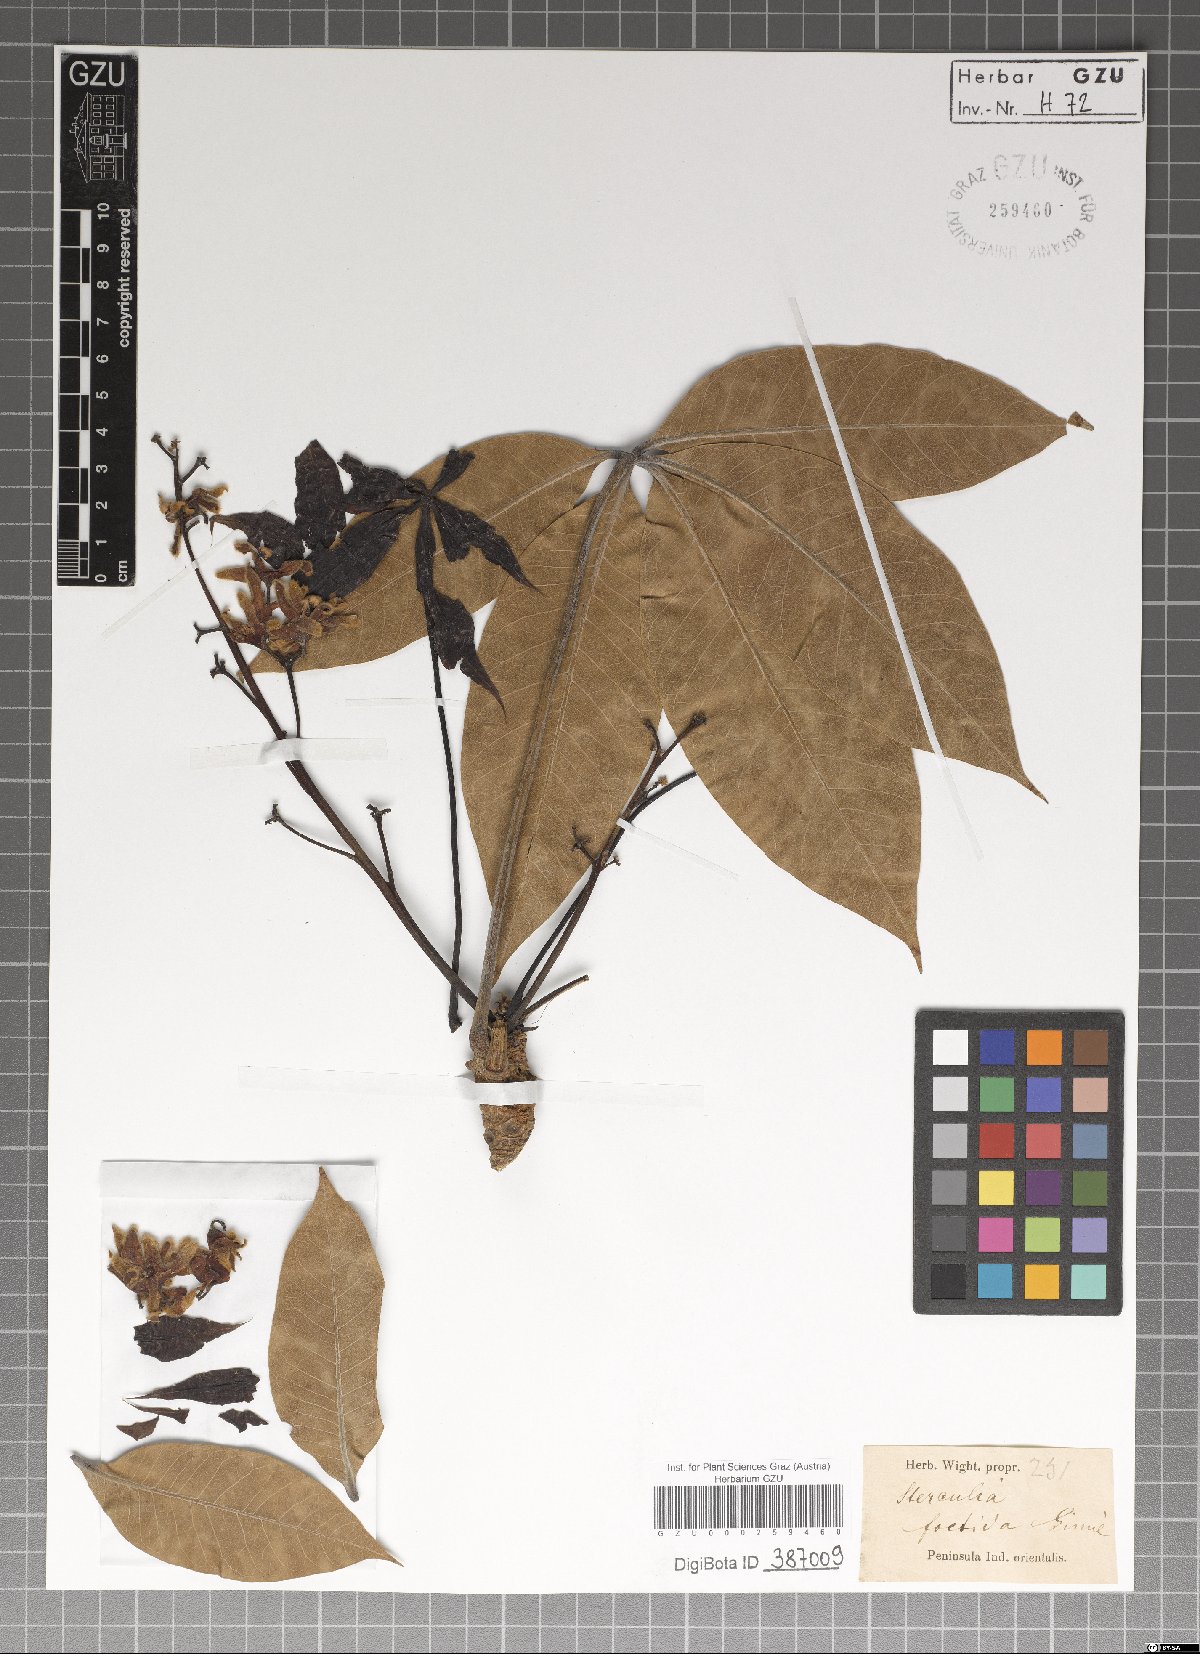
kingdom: Plantae
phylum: Tracheophyta
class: Magnoliopsida
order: Malvales
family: Malvaceae
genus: Sterculia
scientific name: Sterculia foetida
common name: Hazel sterculia
